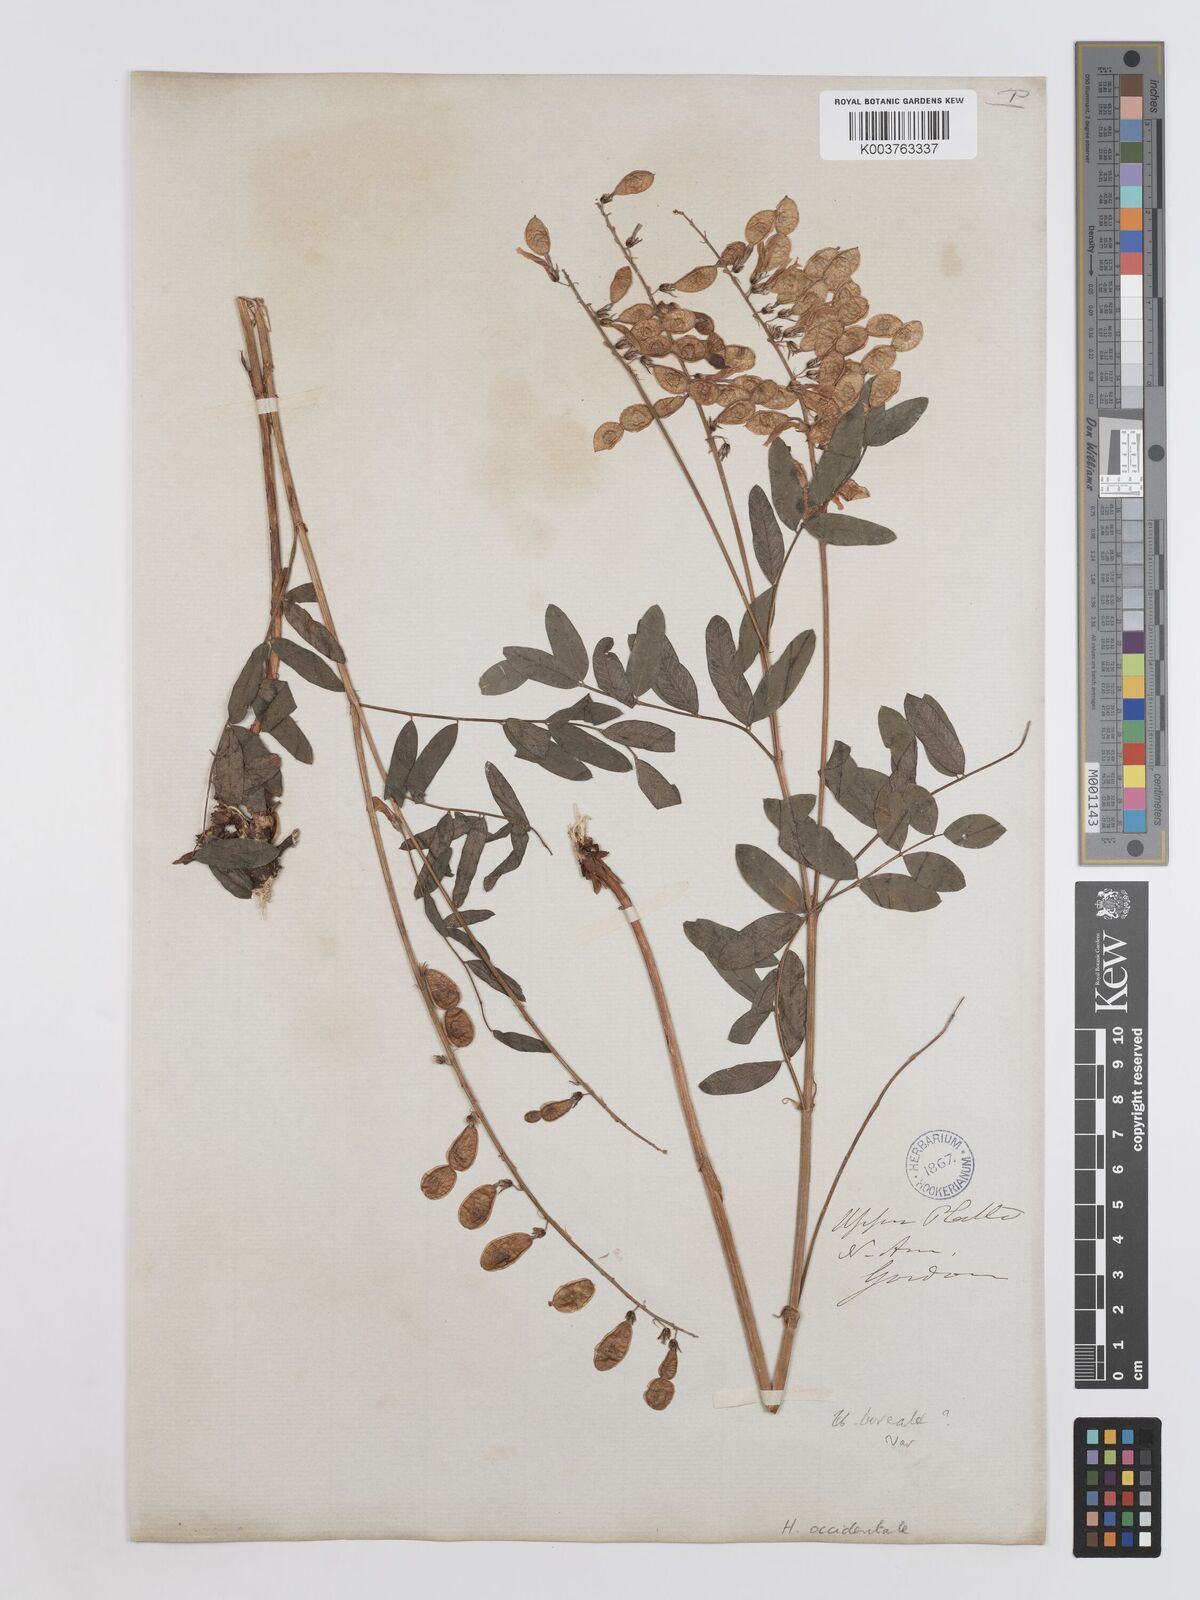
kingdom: Plantae
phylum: Tracheophyta
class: Magnoliopsida
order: Fabales
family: Fabaceae
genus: Hedysarum
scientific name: Hedysarum occidentale
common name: Western hedysarum
